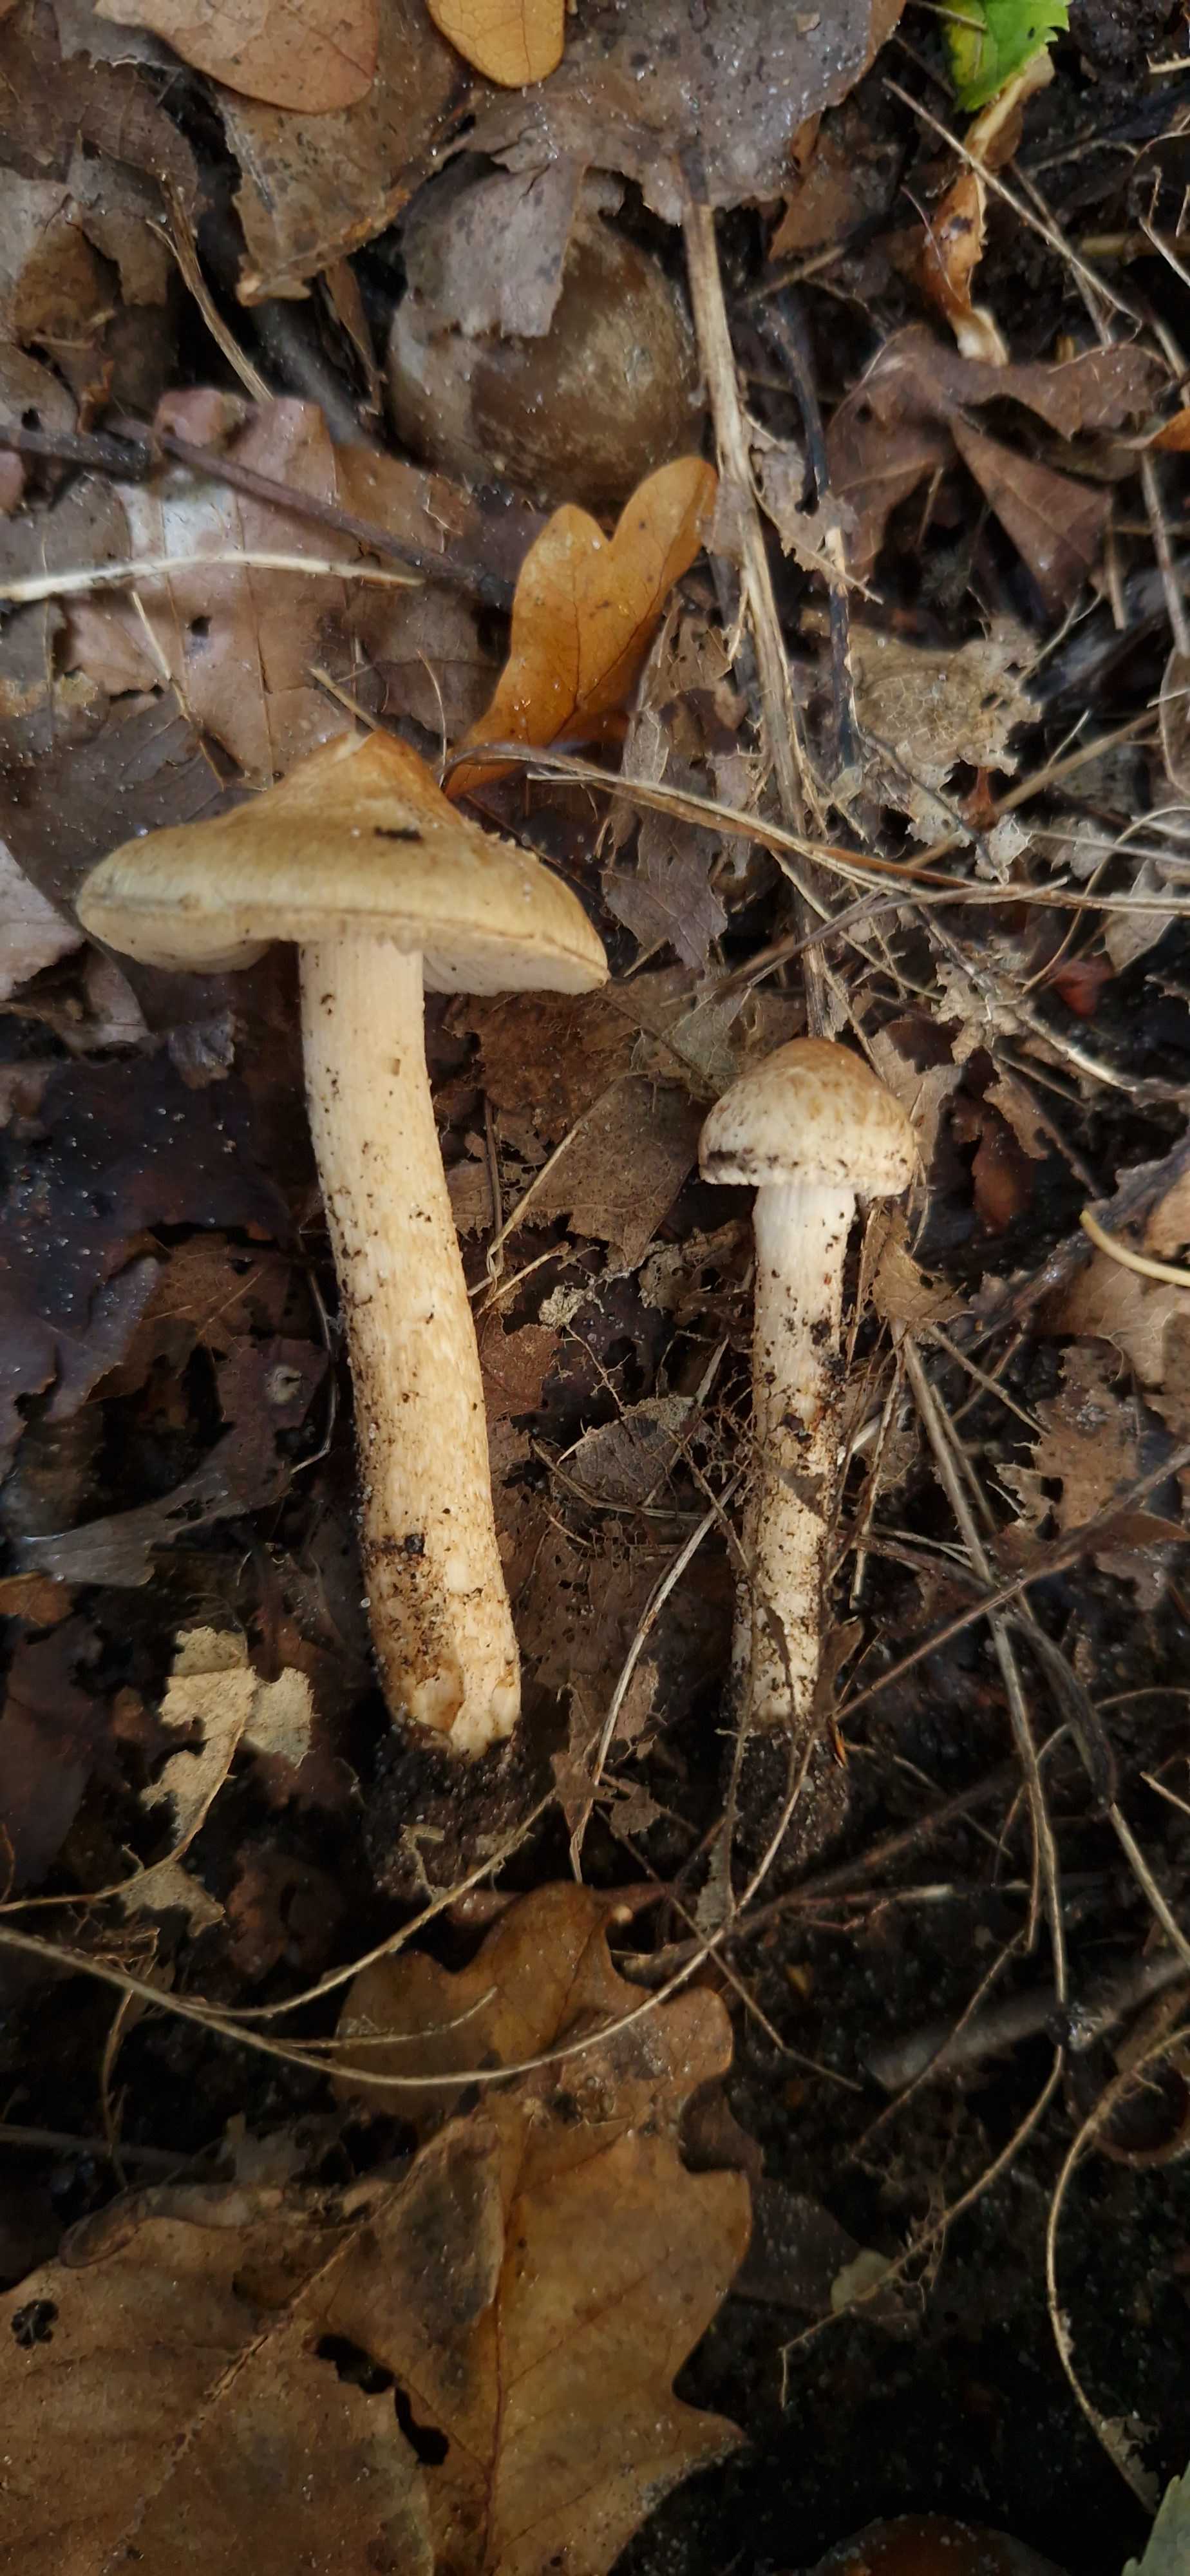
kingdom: Fungi
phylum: Basidiomycota
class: Agaricomycetes
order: Agaricales
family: Inocybaceae
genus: Inocybe
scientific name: Inocybe mytiliodora
